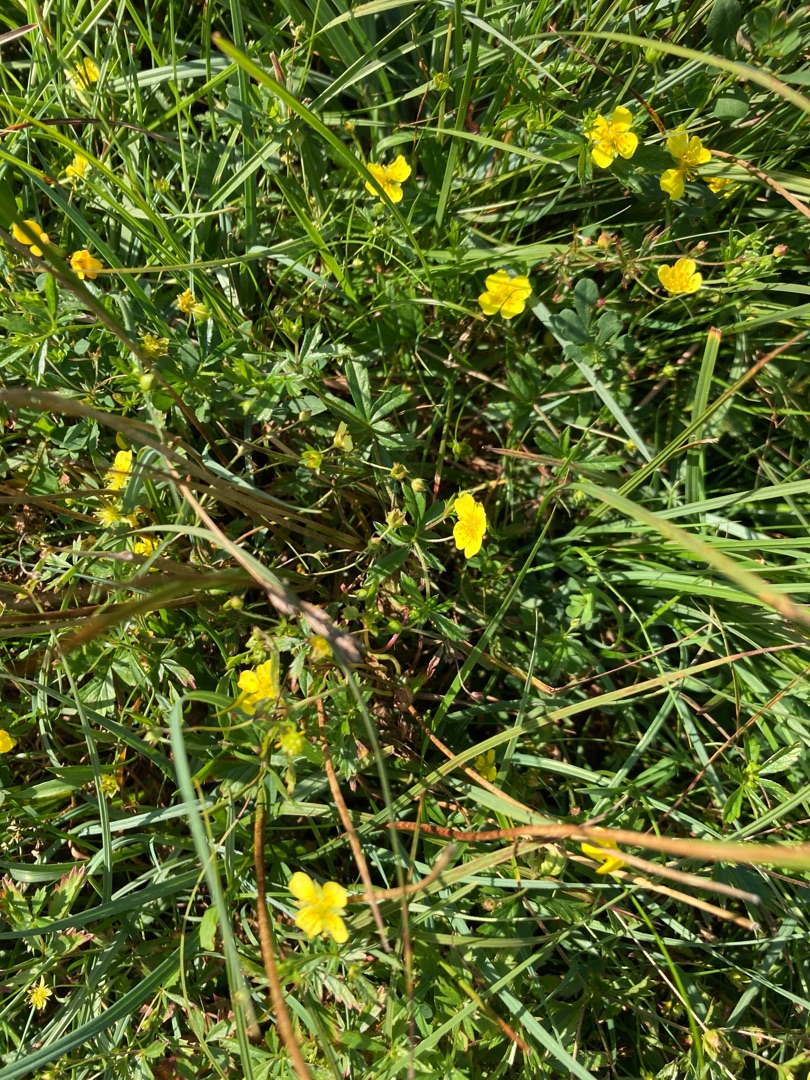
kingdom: Plantae
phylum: Tracheophyta
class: Magnoliopsida
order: Rosales
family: Rosaceae
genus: Potentilla
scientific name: Potentilla erecta
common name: Tormentil
